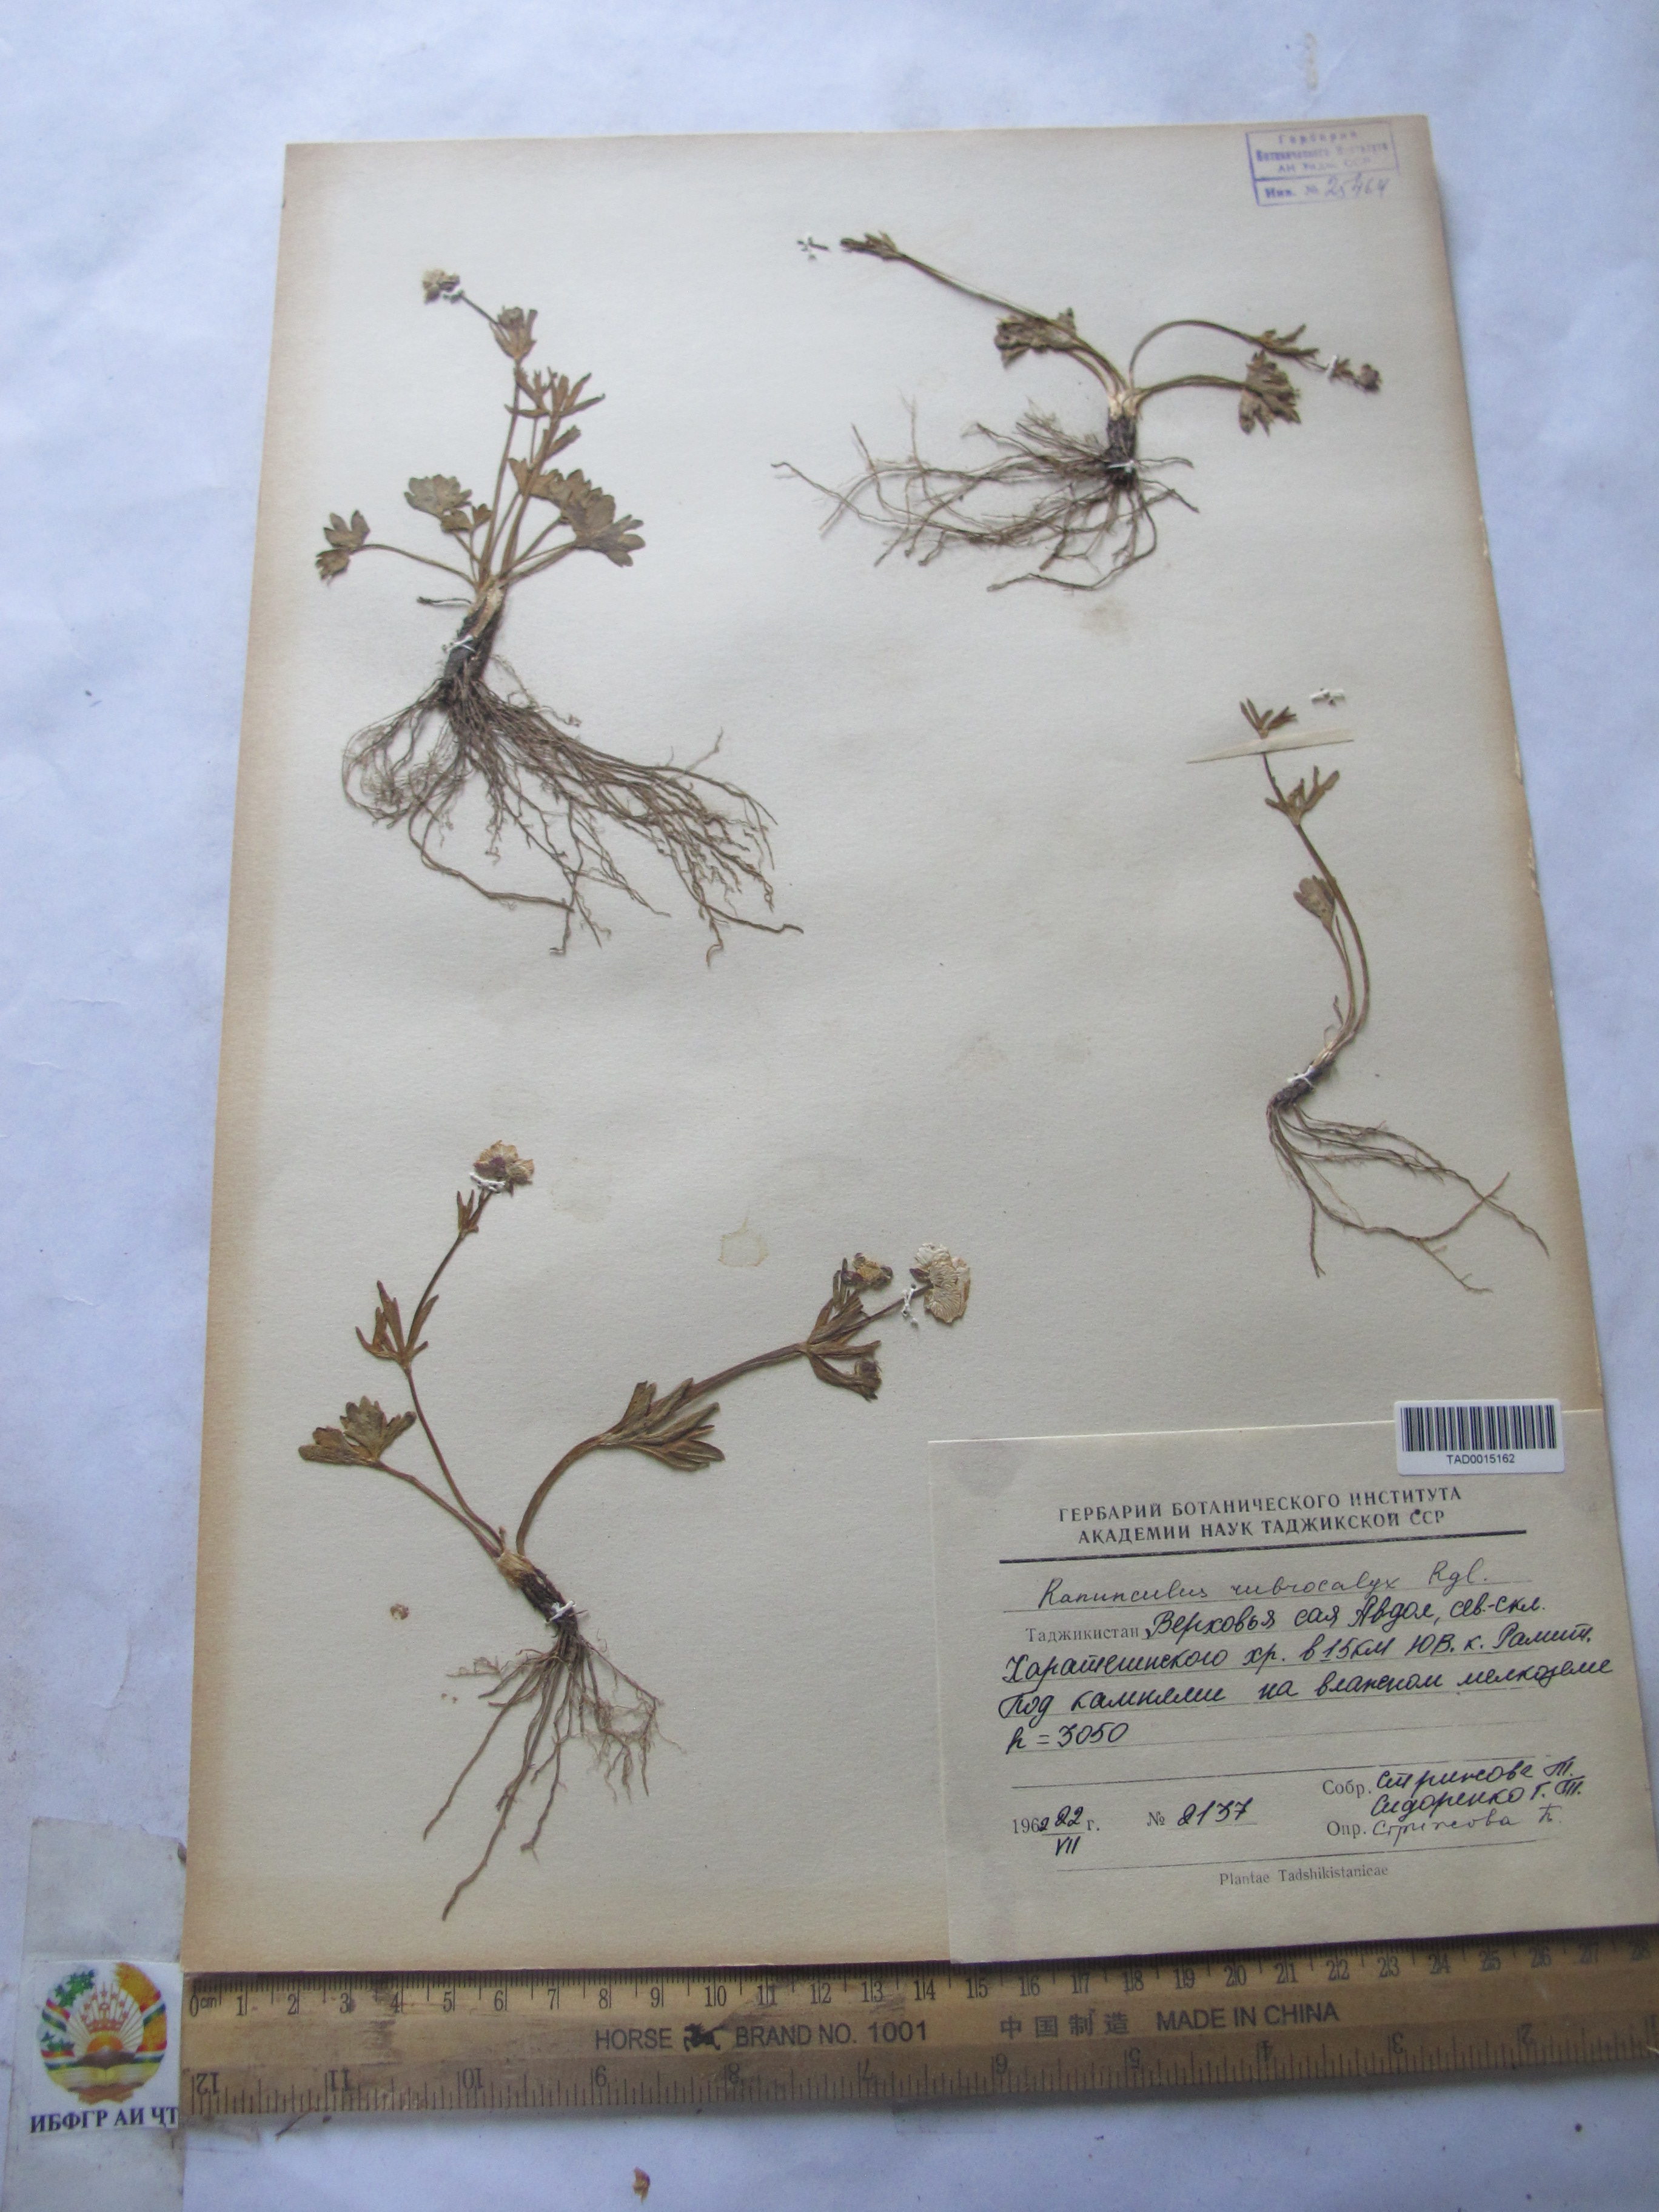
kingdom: Plantae
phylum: Tracheophyta
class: Magnoliopsida
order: Ranunculales
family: Ranunculaceae
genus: Ranunculus
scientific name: Ranunculus rubrocalyx
